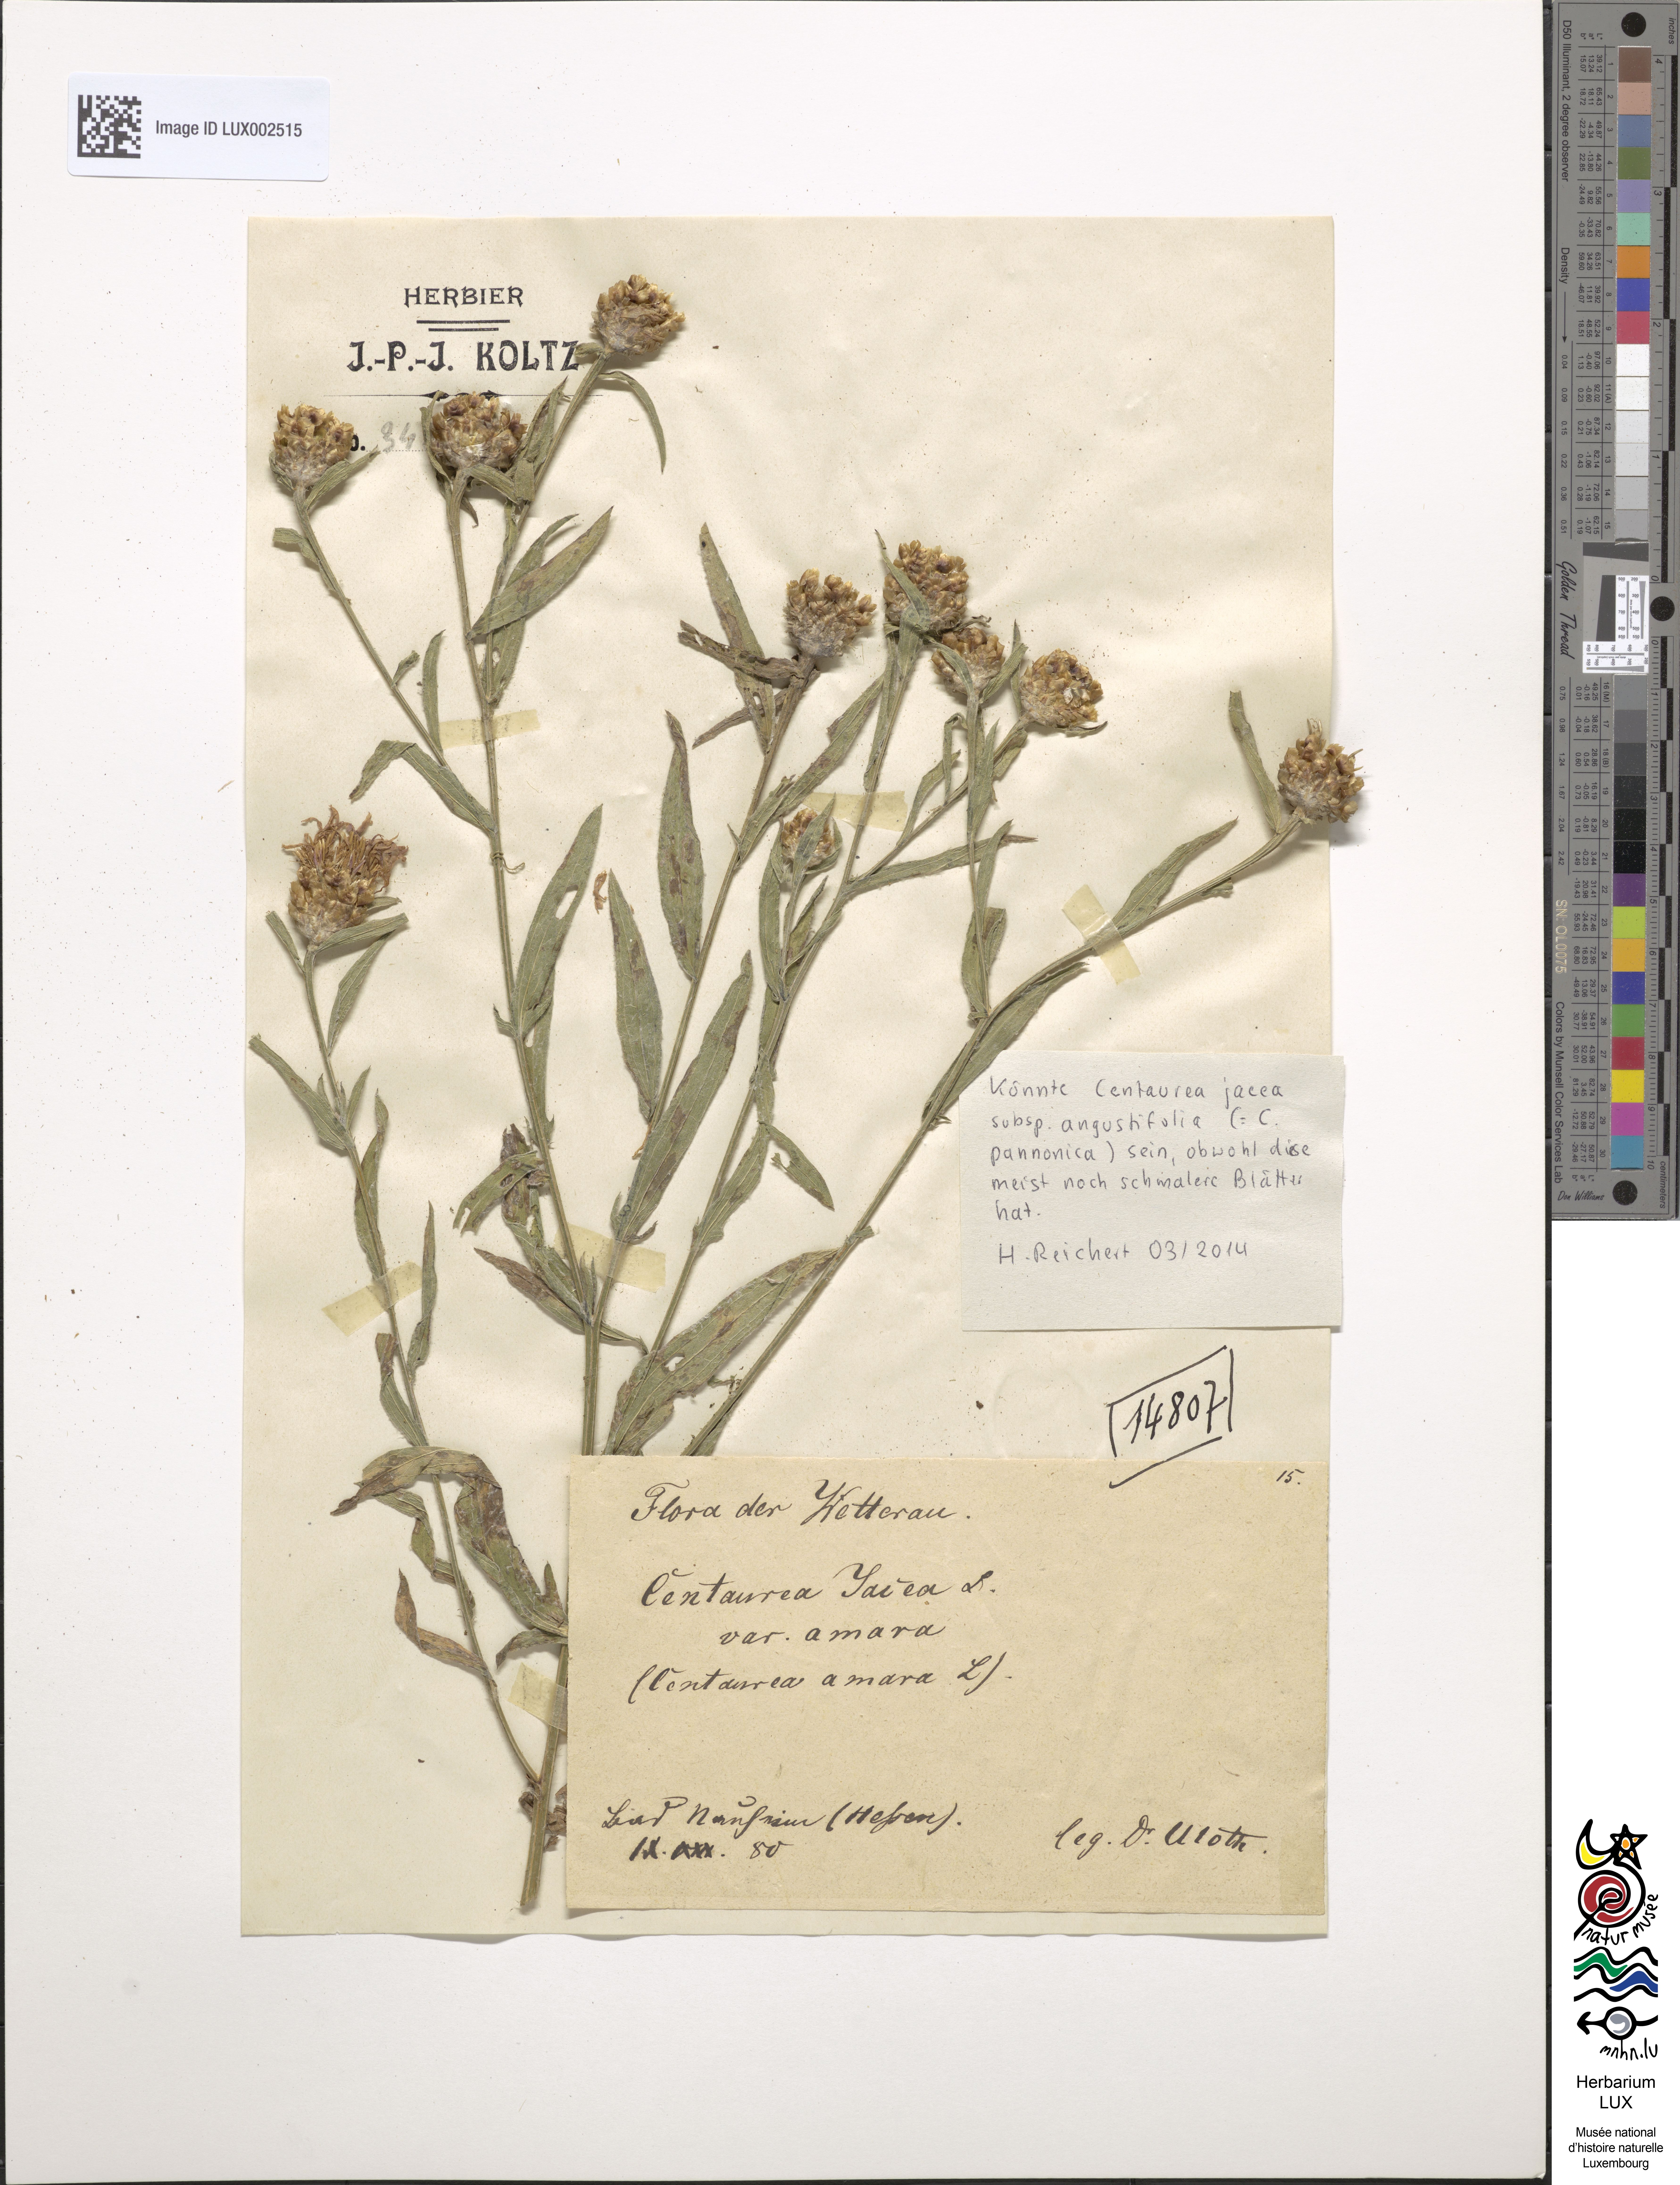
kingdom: Plantae
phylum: Tracheophyta
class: Magnoliopsida
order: Asterales
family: Asteraceae
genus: Centaurea
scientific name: Centaurea jacea
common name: Brown knapweed
